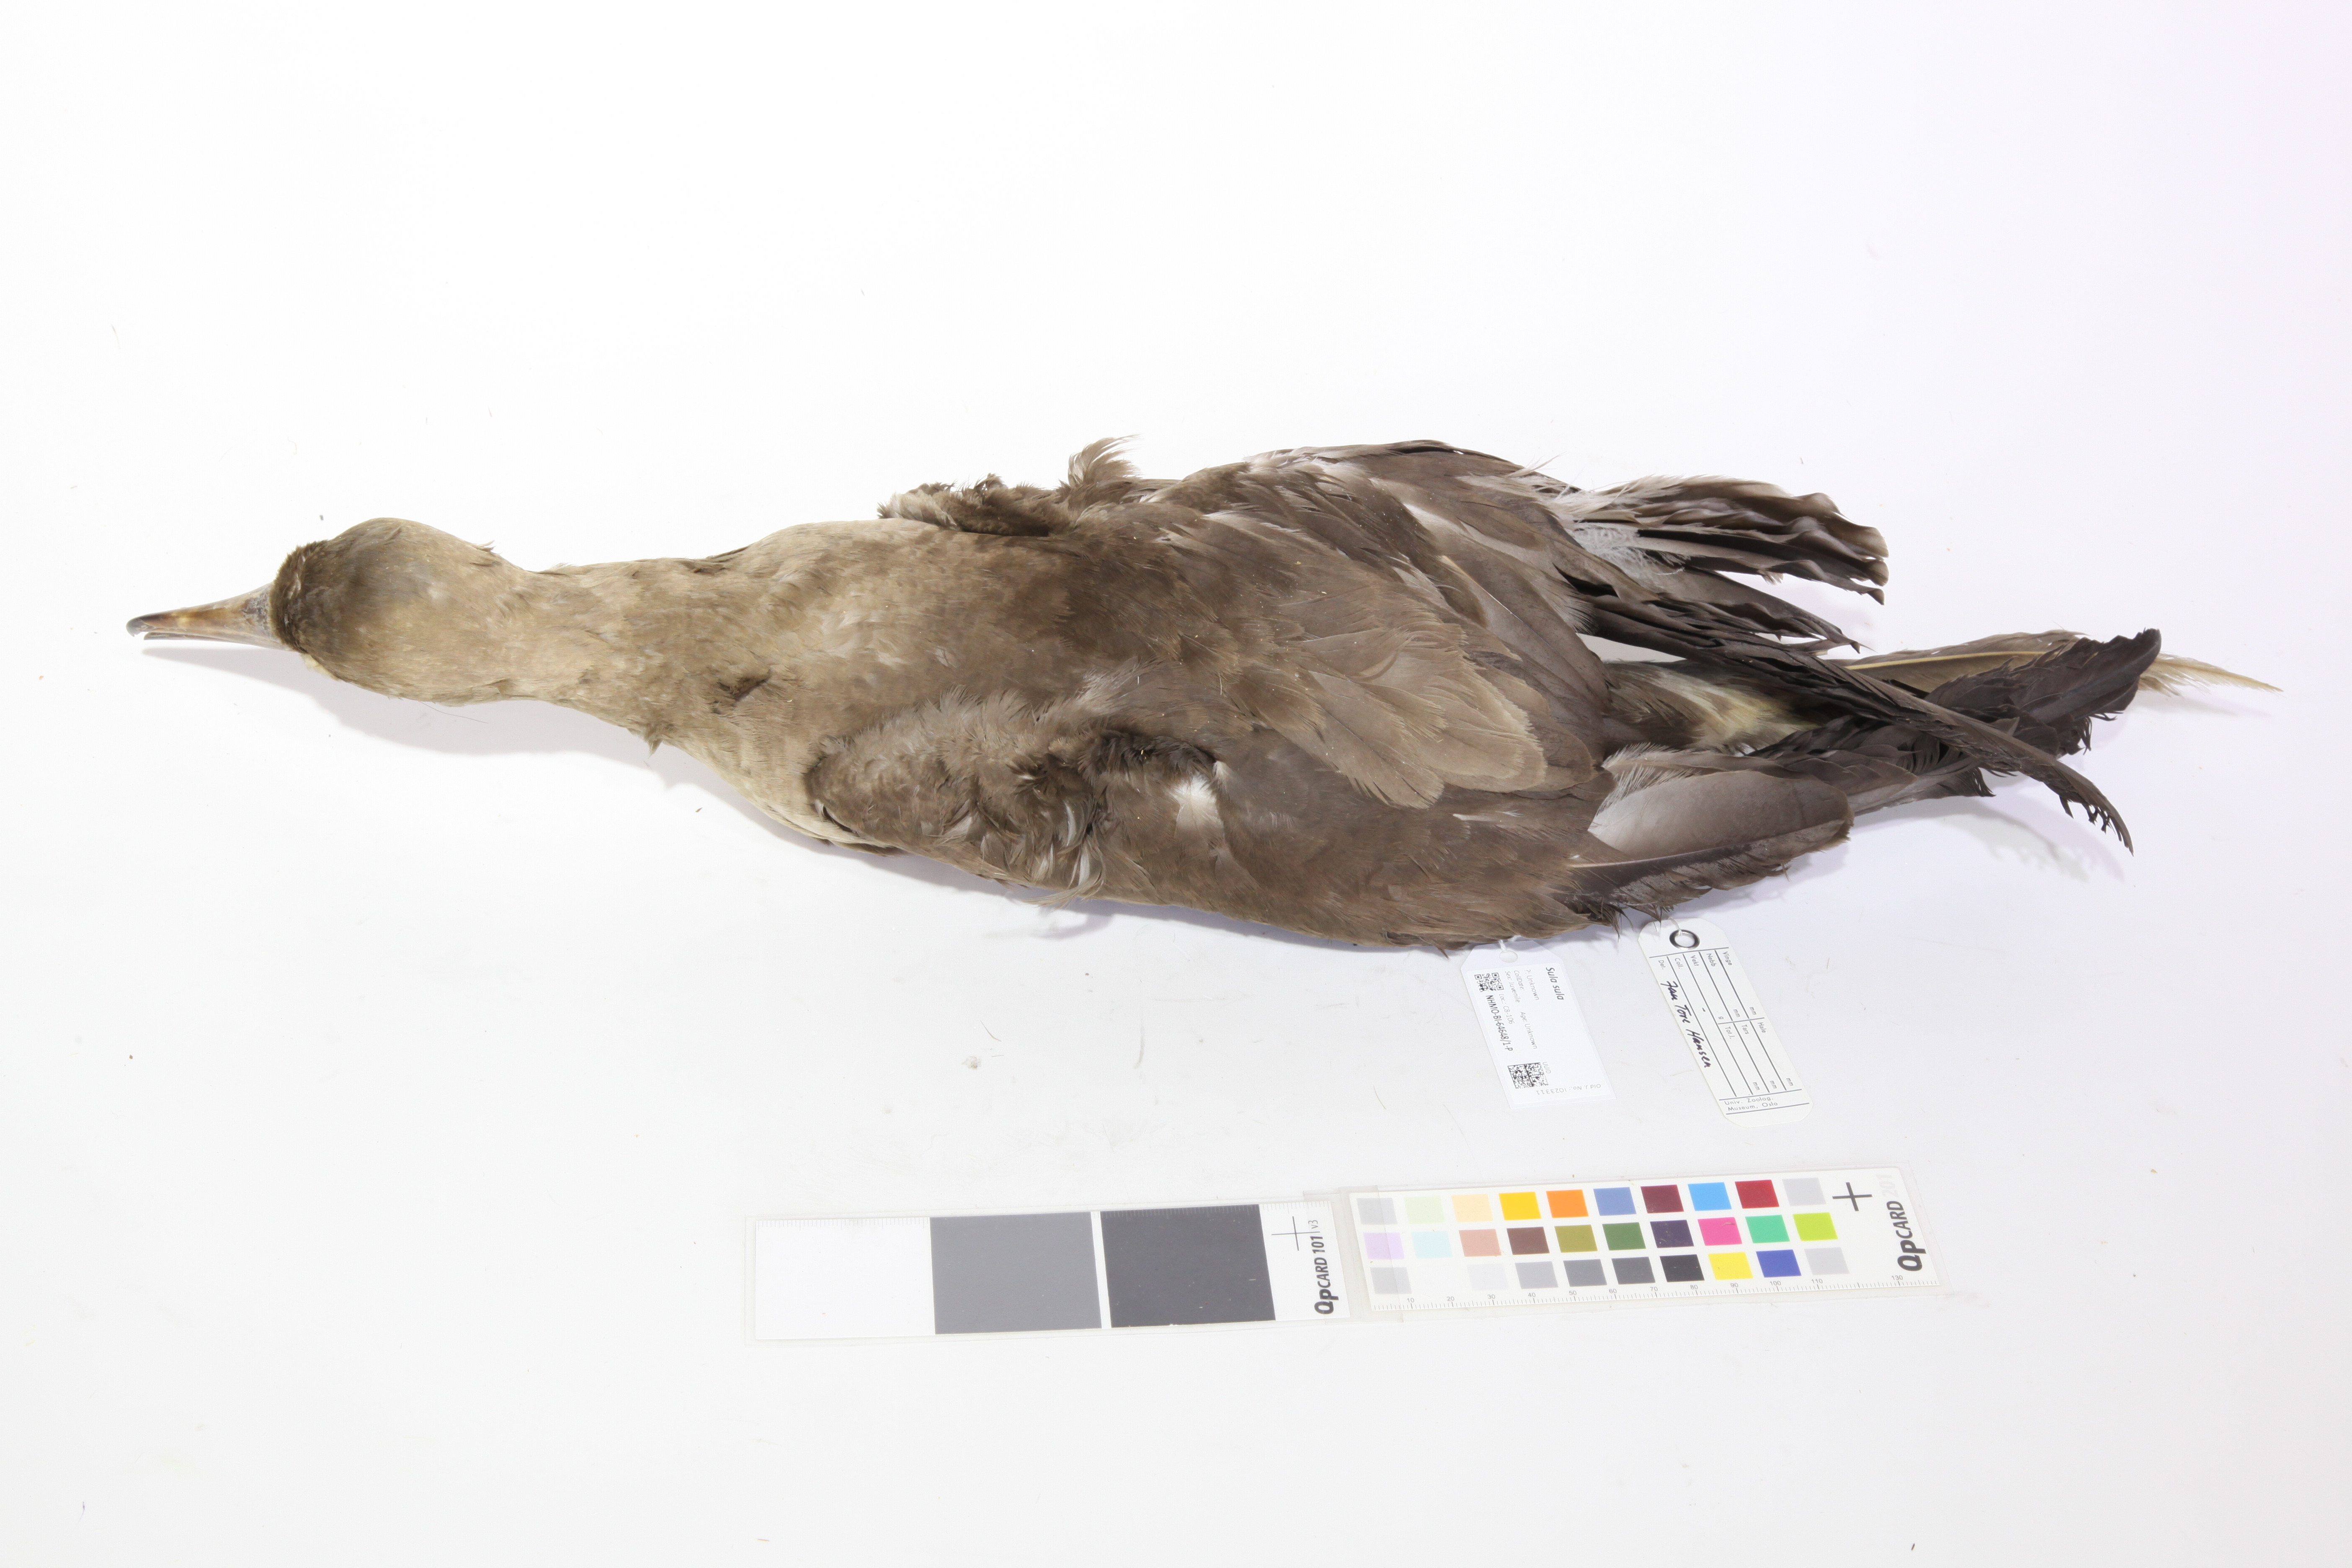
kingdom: Animalia
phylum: Chordata
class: Aves
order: Suliformes
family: Sulidae
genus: Sula
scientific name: Sula sula
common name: Red-footed booby
